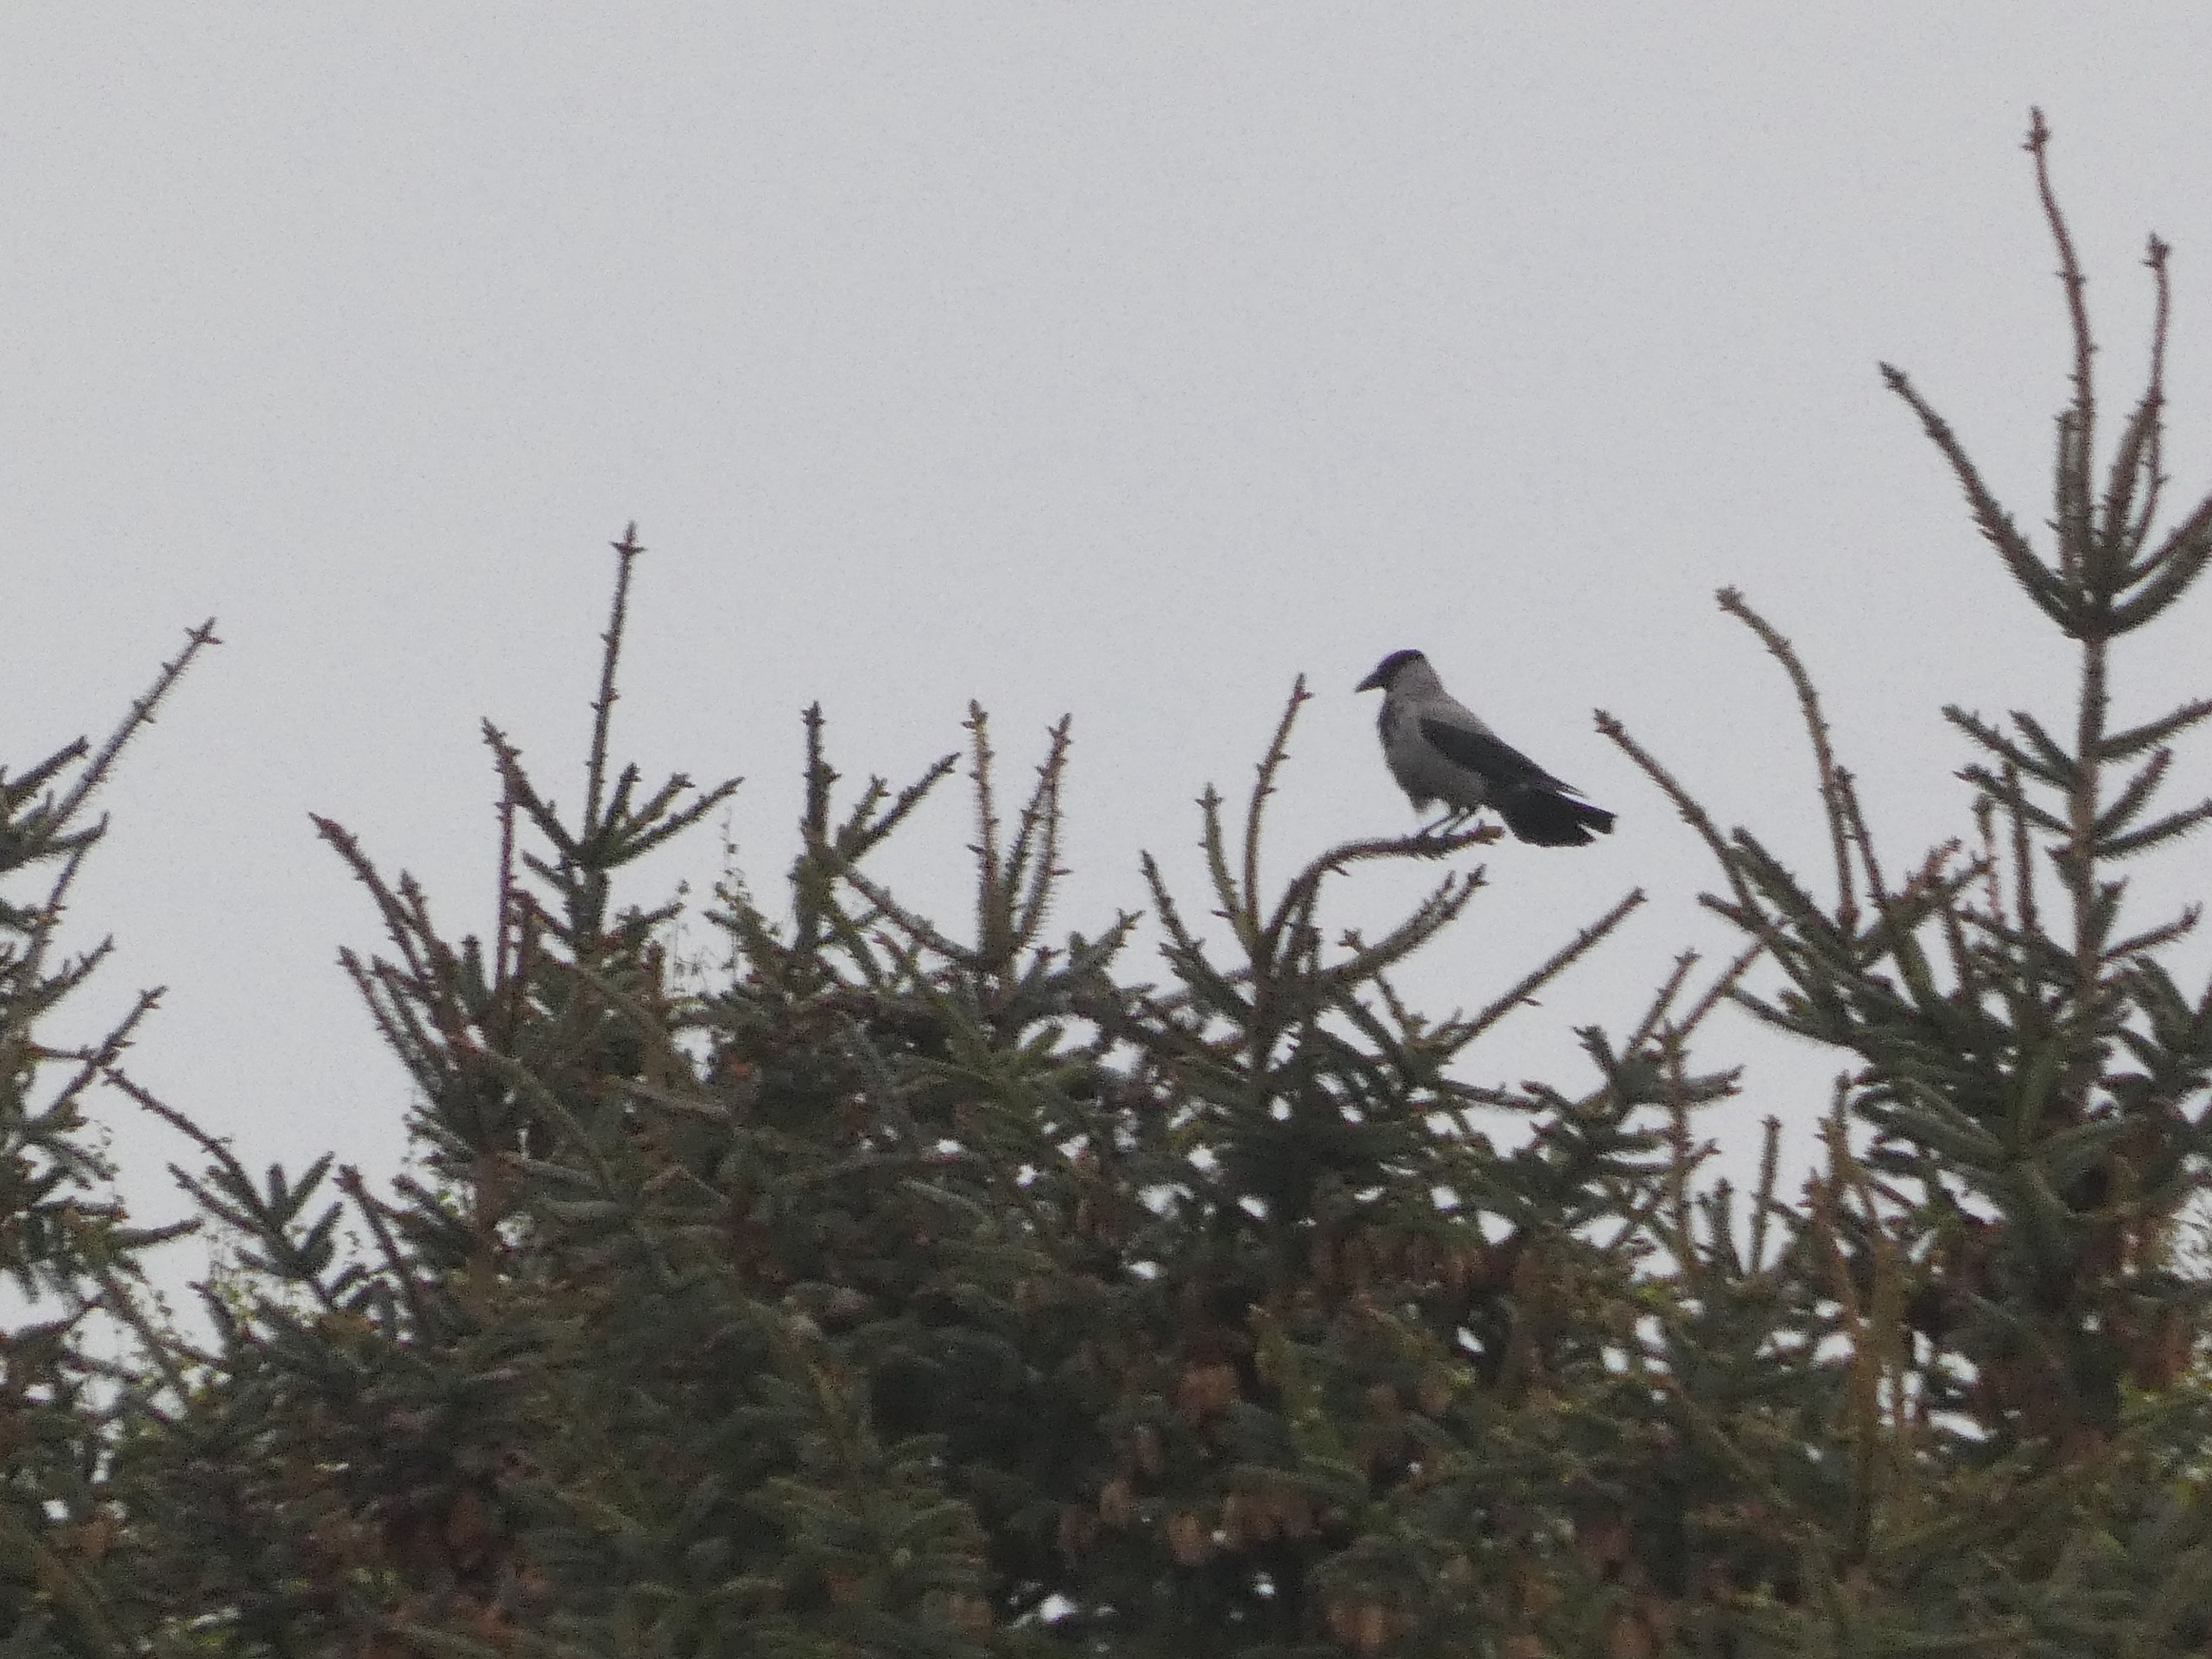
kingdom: Animalia
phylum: Chordata
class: Aves
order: Passeriformes
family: Corvidae
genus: Corvus
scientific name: Corvus cornix
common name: Gråkrage
